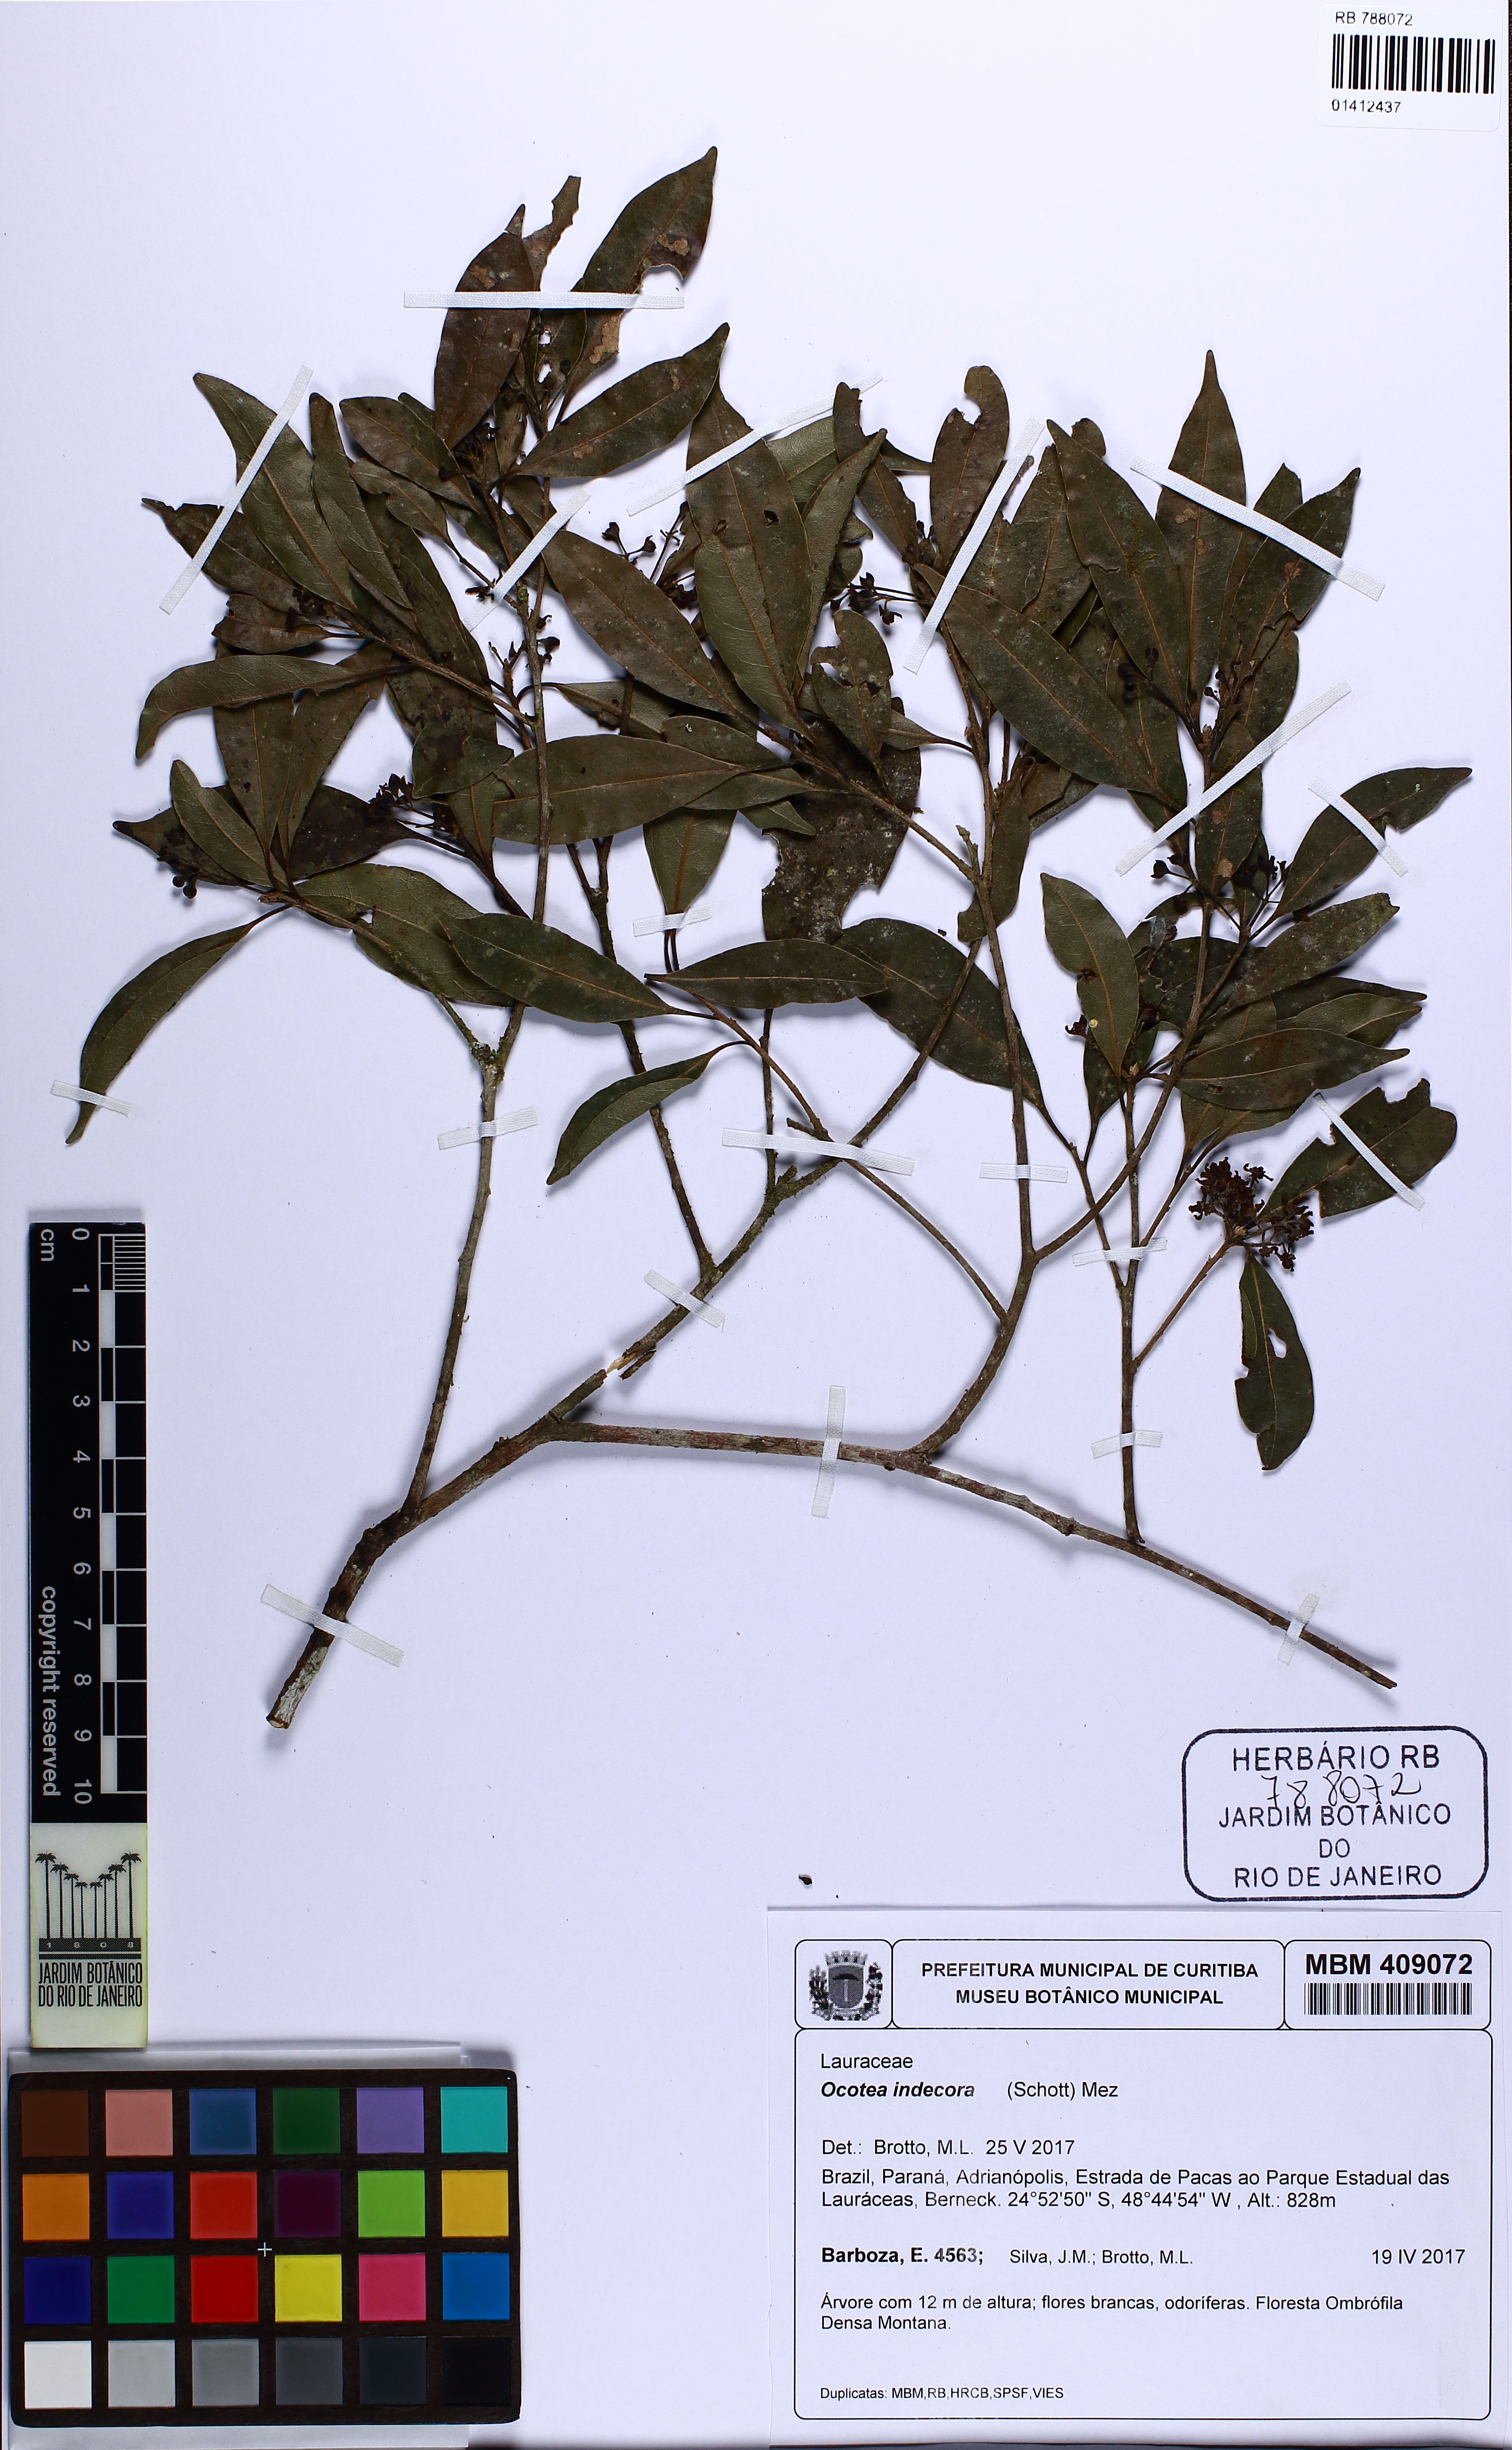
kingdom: Plantae
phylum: Tracheophyta
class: Magnoliopsida
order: Laurales
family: Lauraceae
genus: Mespilodaphne
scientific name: Mespilodaphne indecora
